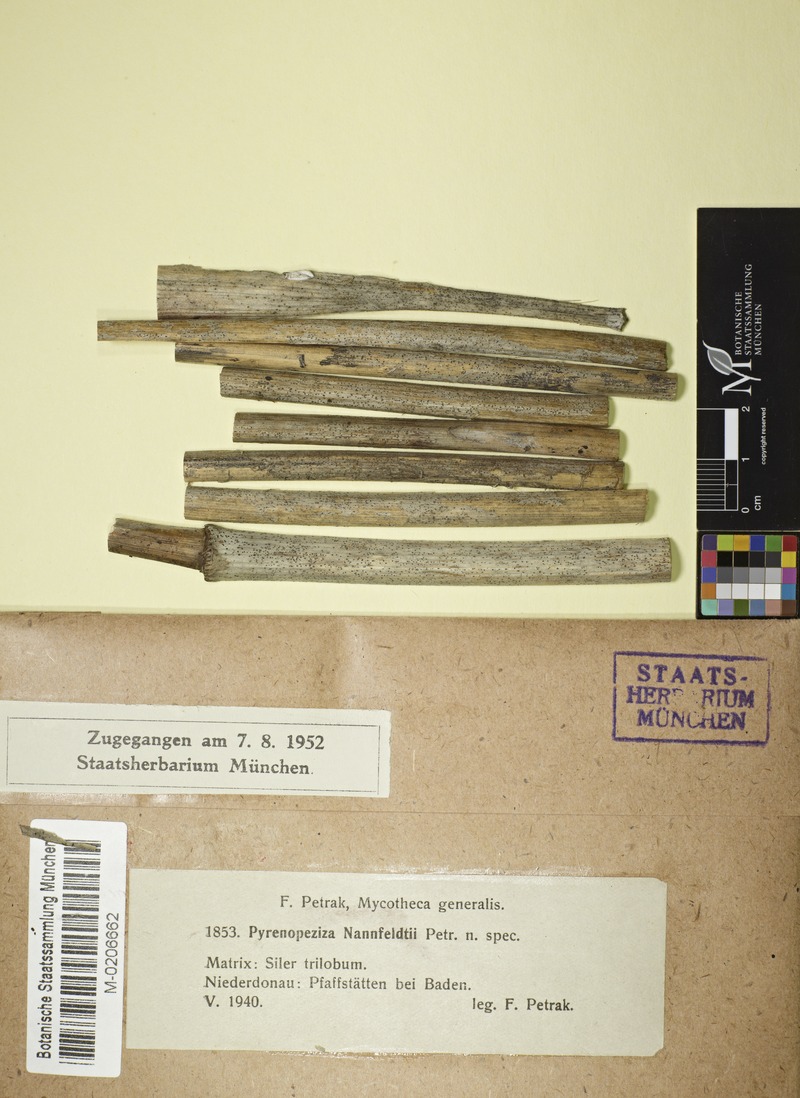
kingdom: Fungi
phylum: Ascomycota
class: Leotiomycetes
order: Helotiales
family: Ploettnerulaceae
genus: Pyrenopeziza
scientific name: Pyrenopeziza subplicata
